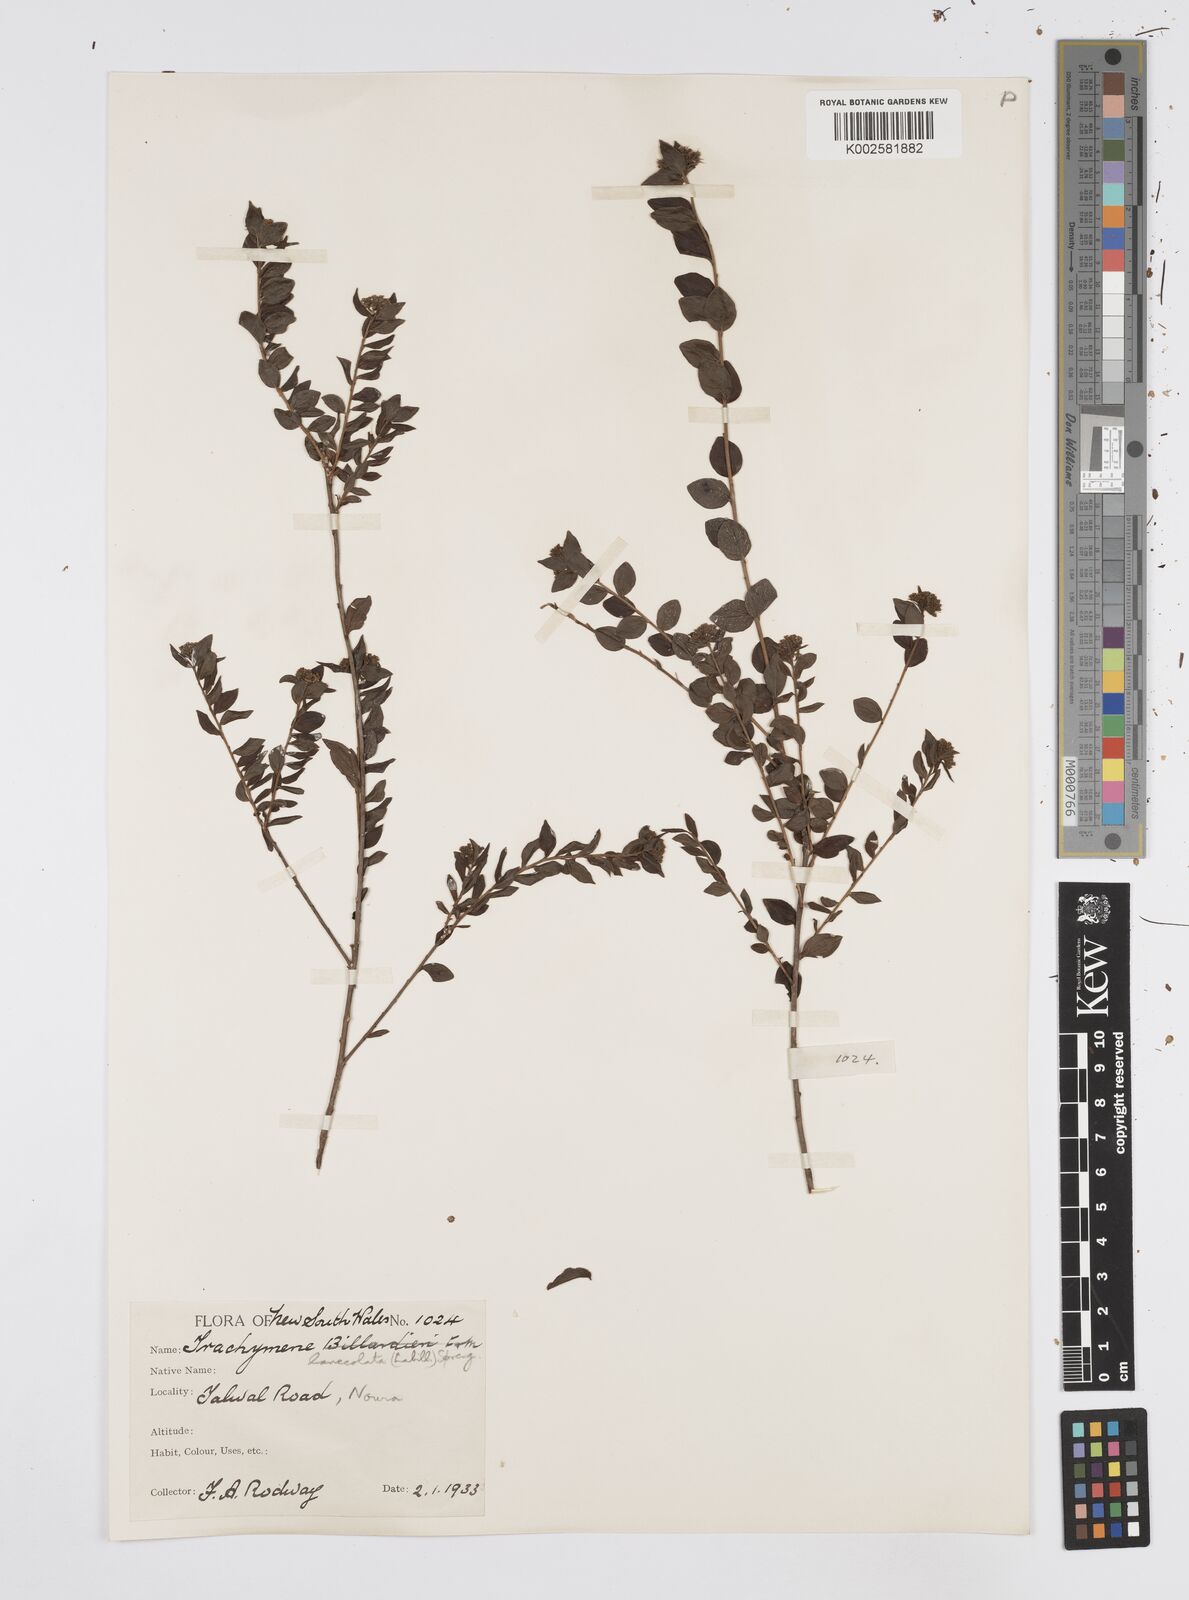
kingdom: Plantae
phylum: Tracheophyta
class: Magnoliopsida
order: Apiales
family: Apiaceae
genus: Platysace
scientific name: Platysace lanceolata
